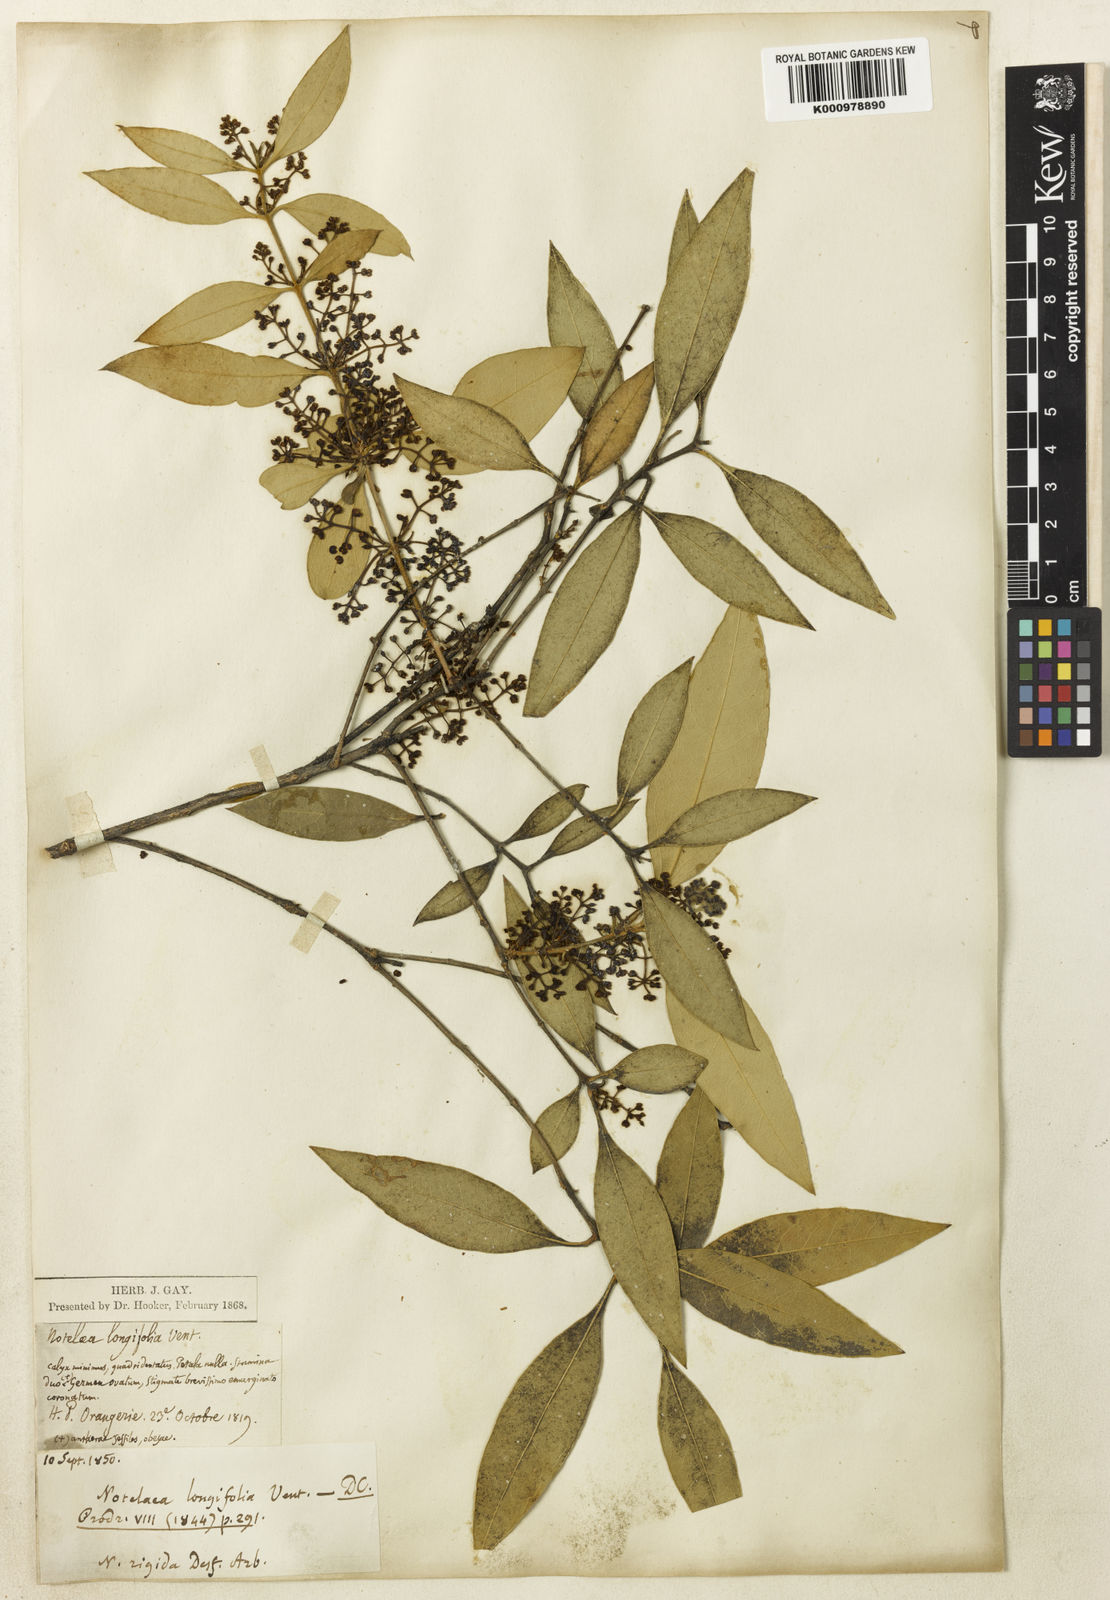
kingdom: Plantae
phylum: Tracheophyta
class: Magnoliopsida
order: Lamiales
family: Oleaceae
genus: Notelaea
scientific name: Notelaea ligustrina
